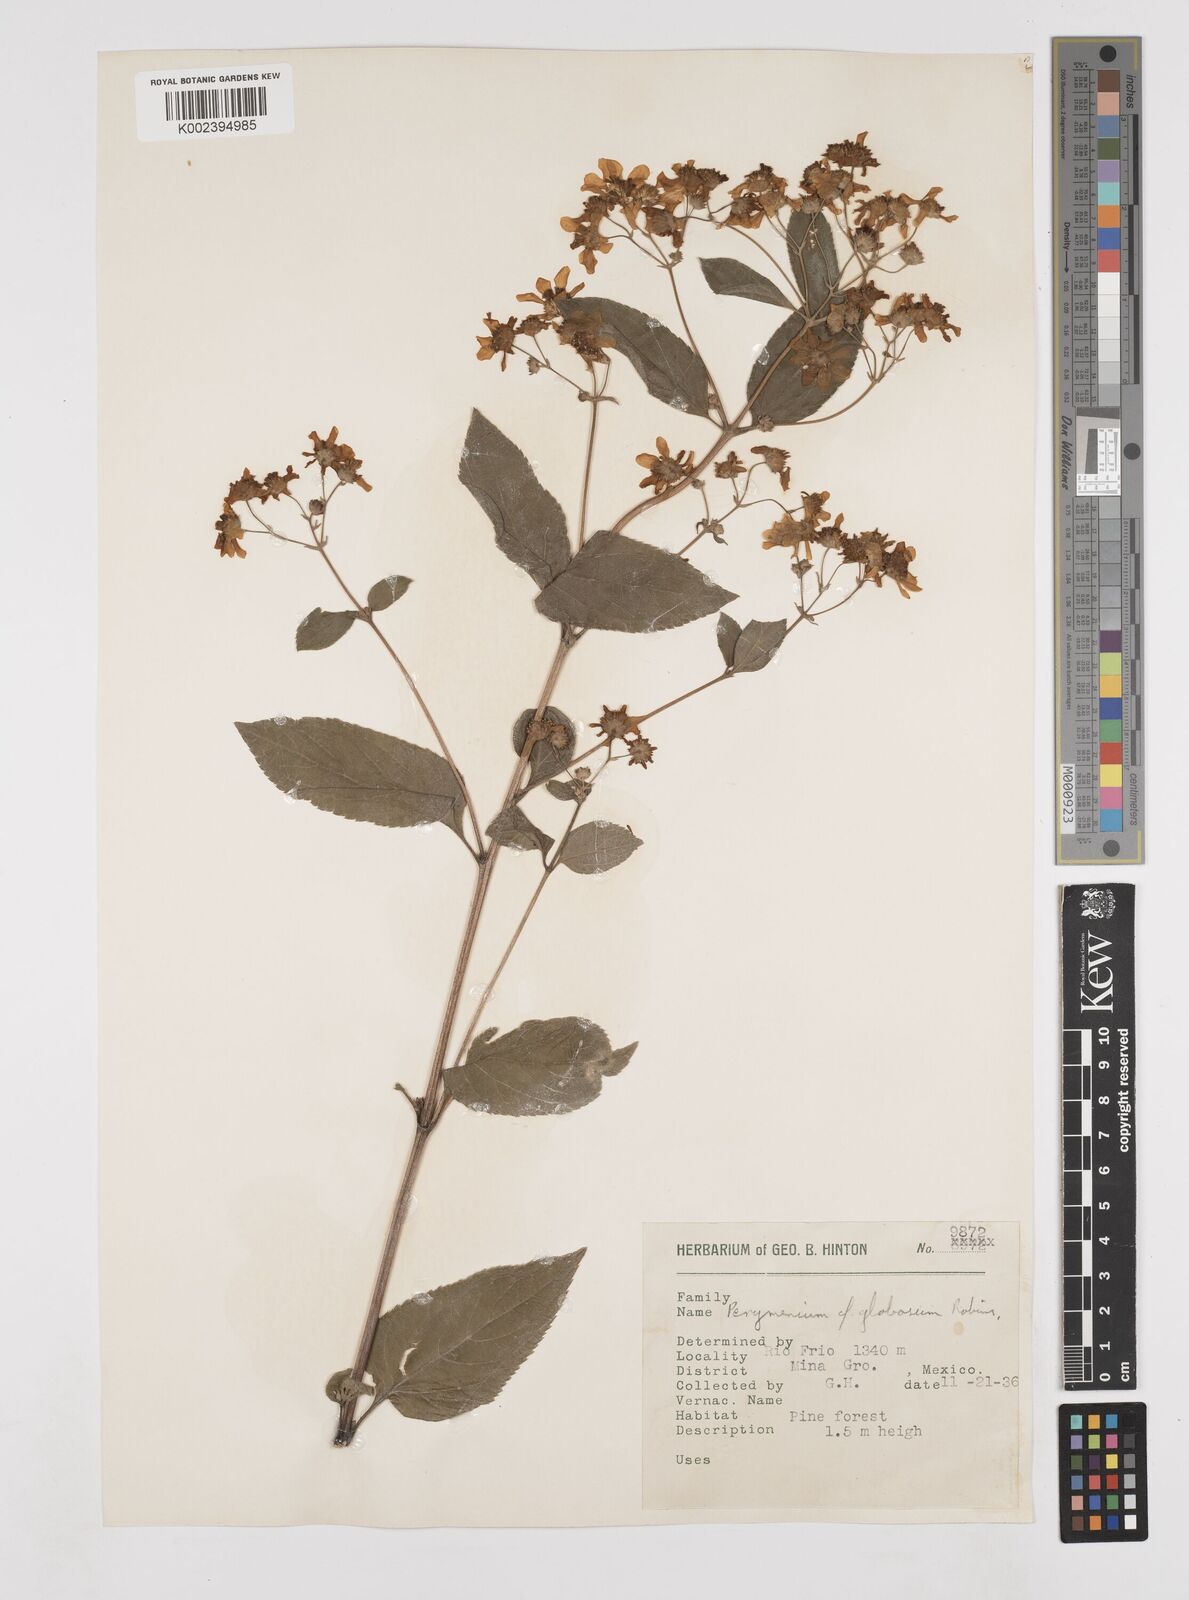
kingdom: Plantae
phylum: Tracheophyta
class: Magnoliopsida
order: Asterales
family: Asteraceae
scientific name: Asteraceae
